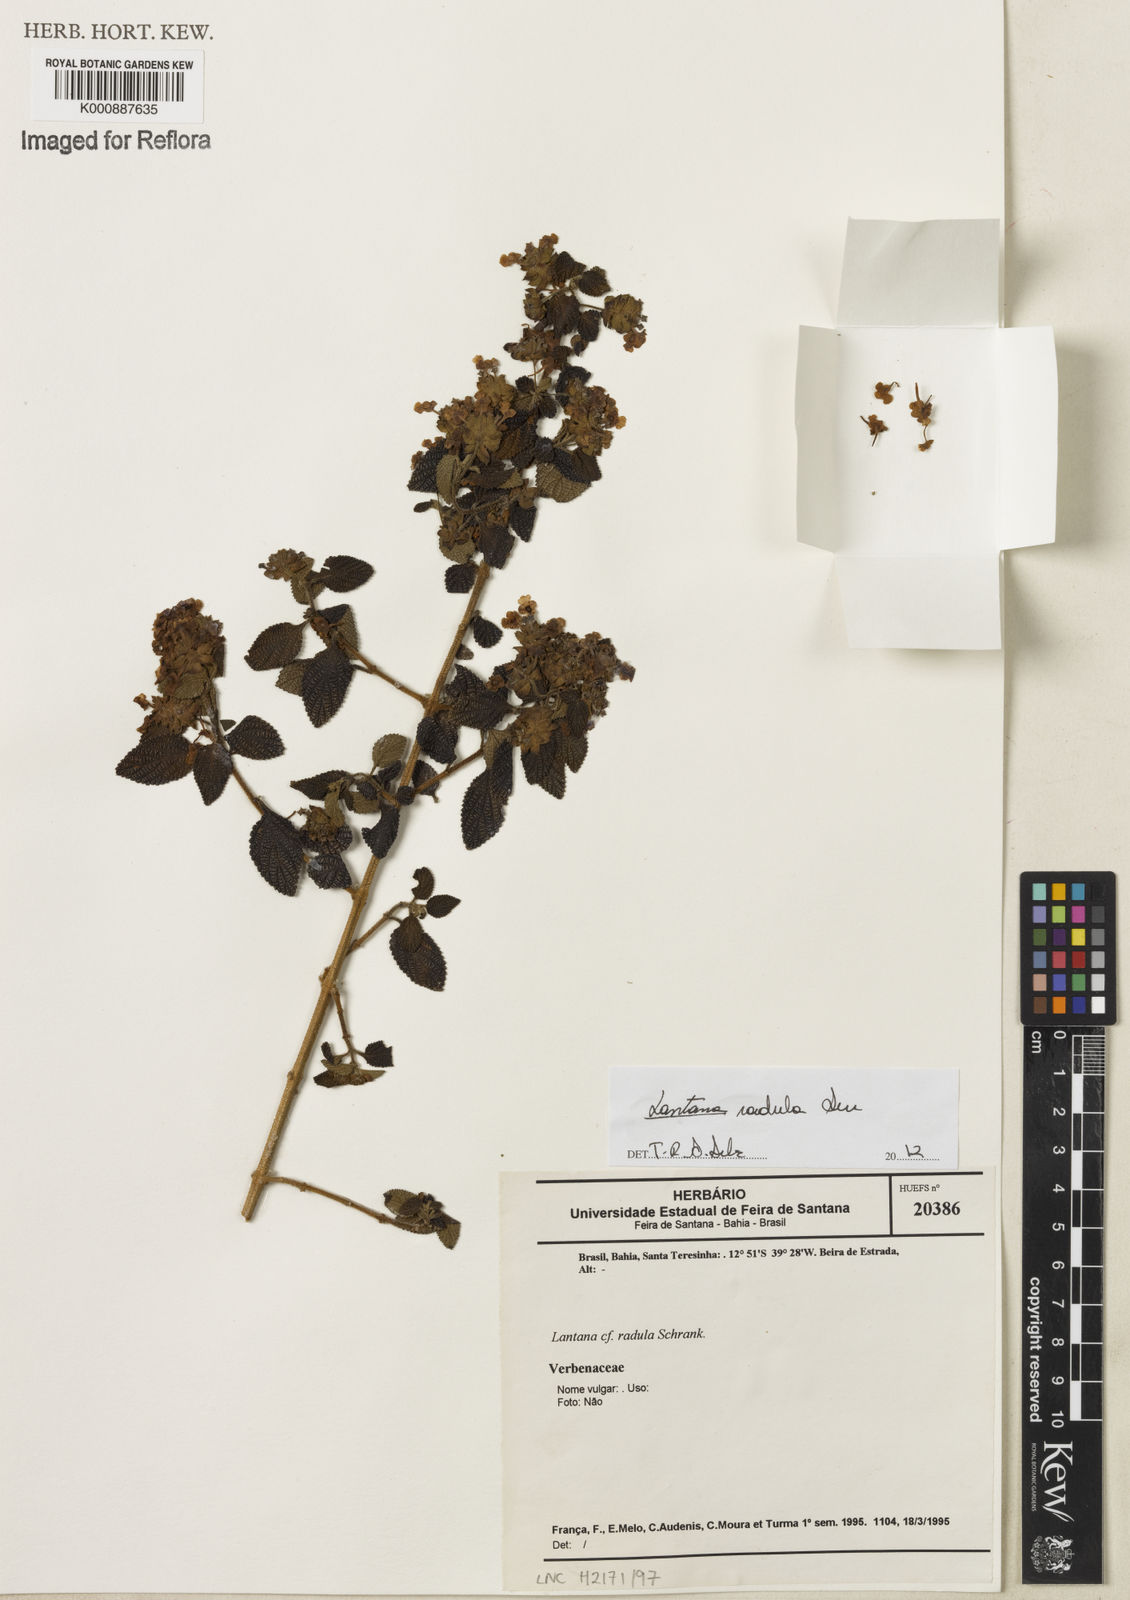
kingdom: Plantae
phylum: Tracheophyta
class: Magnoliopsida
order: Lamiales
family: Verbenaceae
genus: Lantana
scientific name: Lantana radula
